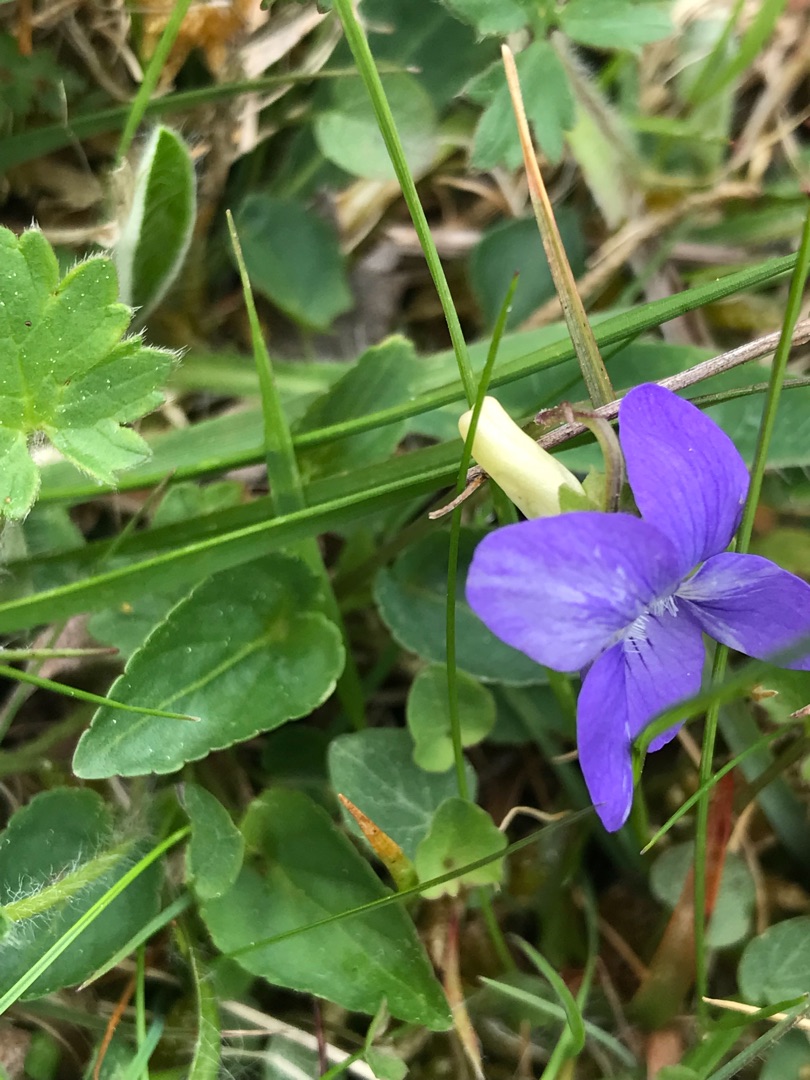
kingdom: Plantae
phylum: Tracheophyta
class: Magnoliopsida
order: Malpighiales
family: Violaceae
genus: Viola
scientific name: Viola canina
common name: Hunde-viol
